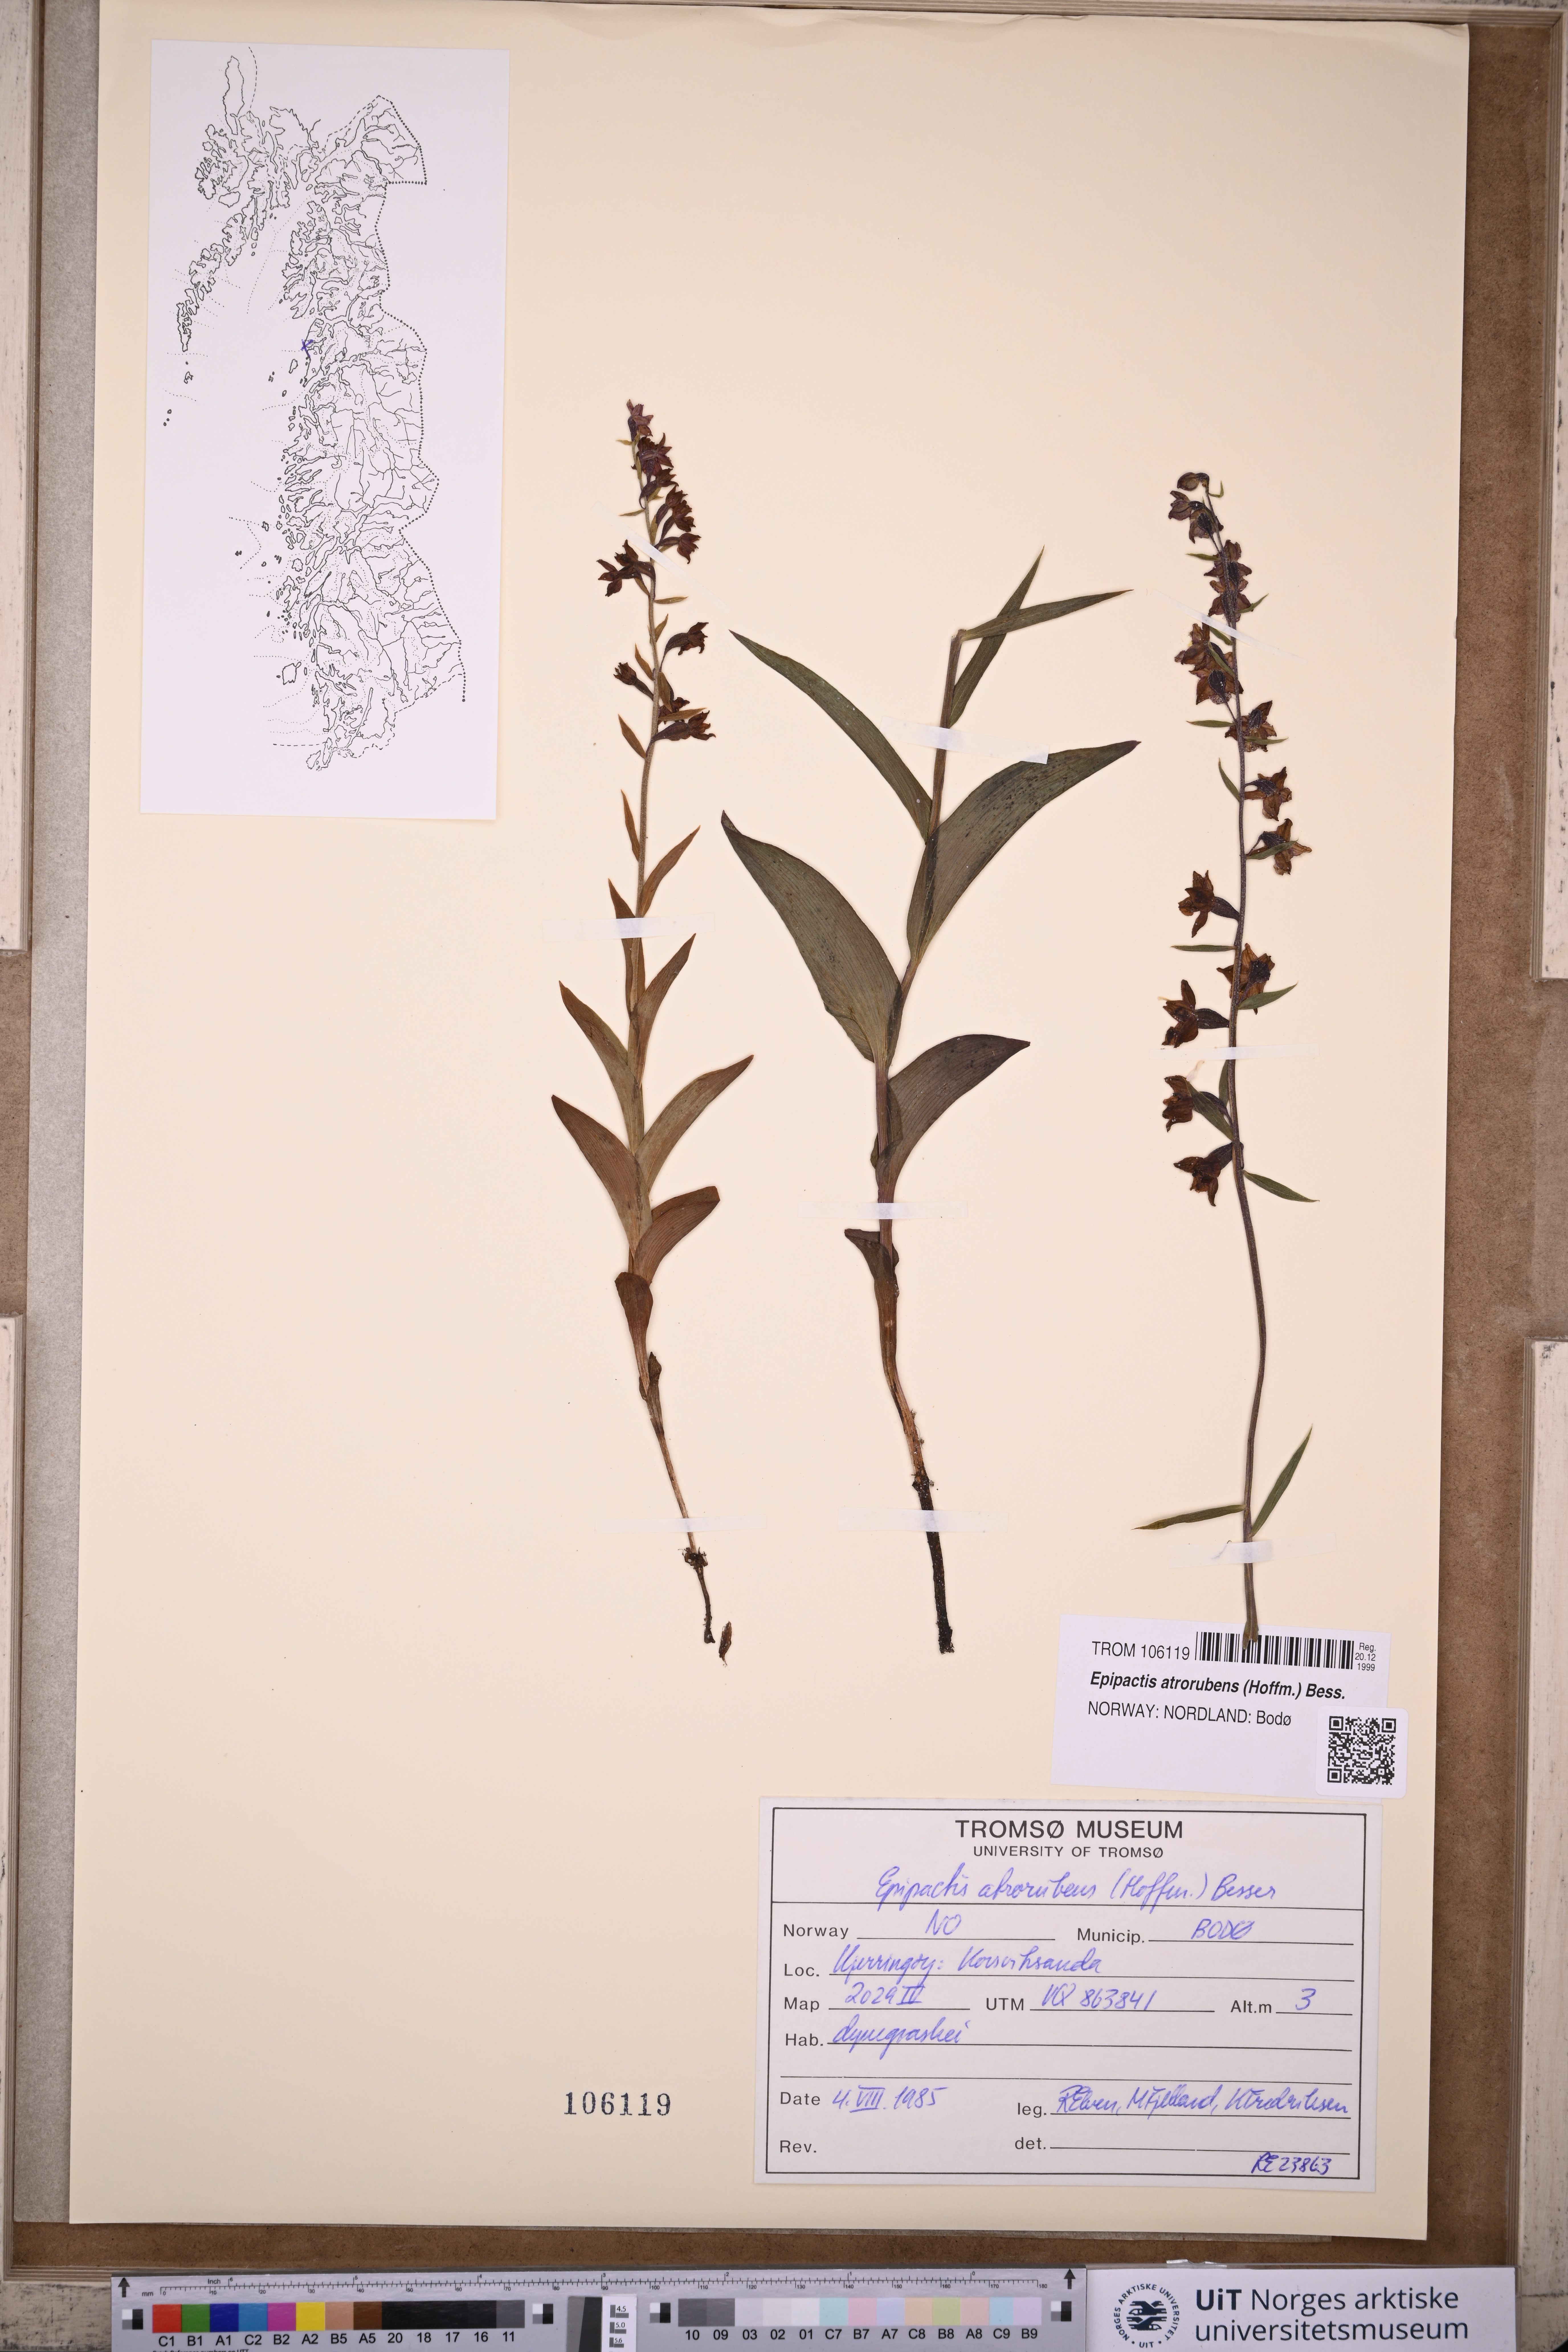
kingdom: Plantae
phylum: Tracheophyta
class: Liliopsida
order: Asparagales
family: Orchidaceae
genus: Epipactis
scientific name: Epipactis atrorubens
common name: Dark-red helleborine
